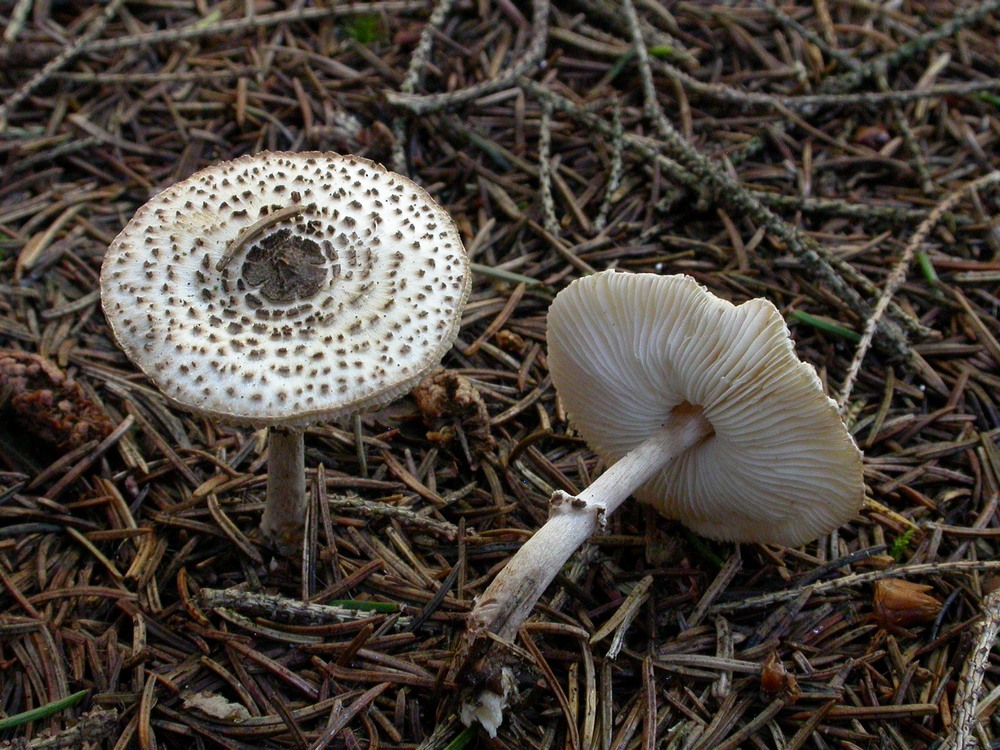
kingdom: Fungi
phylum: Basidiomycota
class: Agaricomycetes
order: Agaricales
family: Agaricaceae
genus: Leucoagaricus
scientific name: Leucoagaricus nympharum
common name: gran-silkehat
